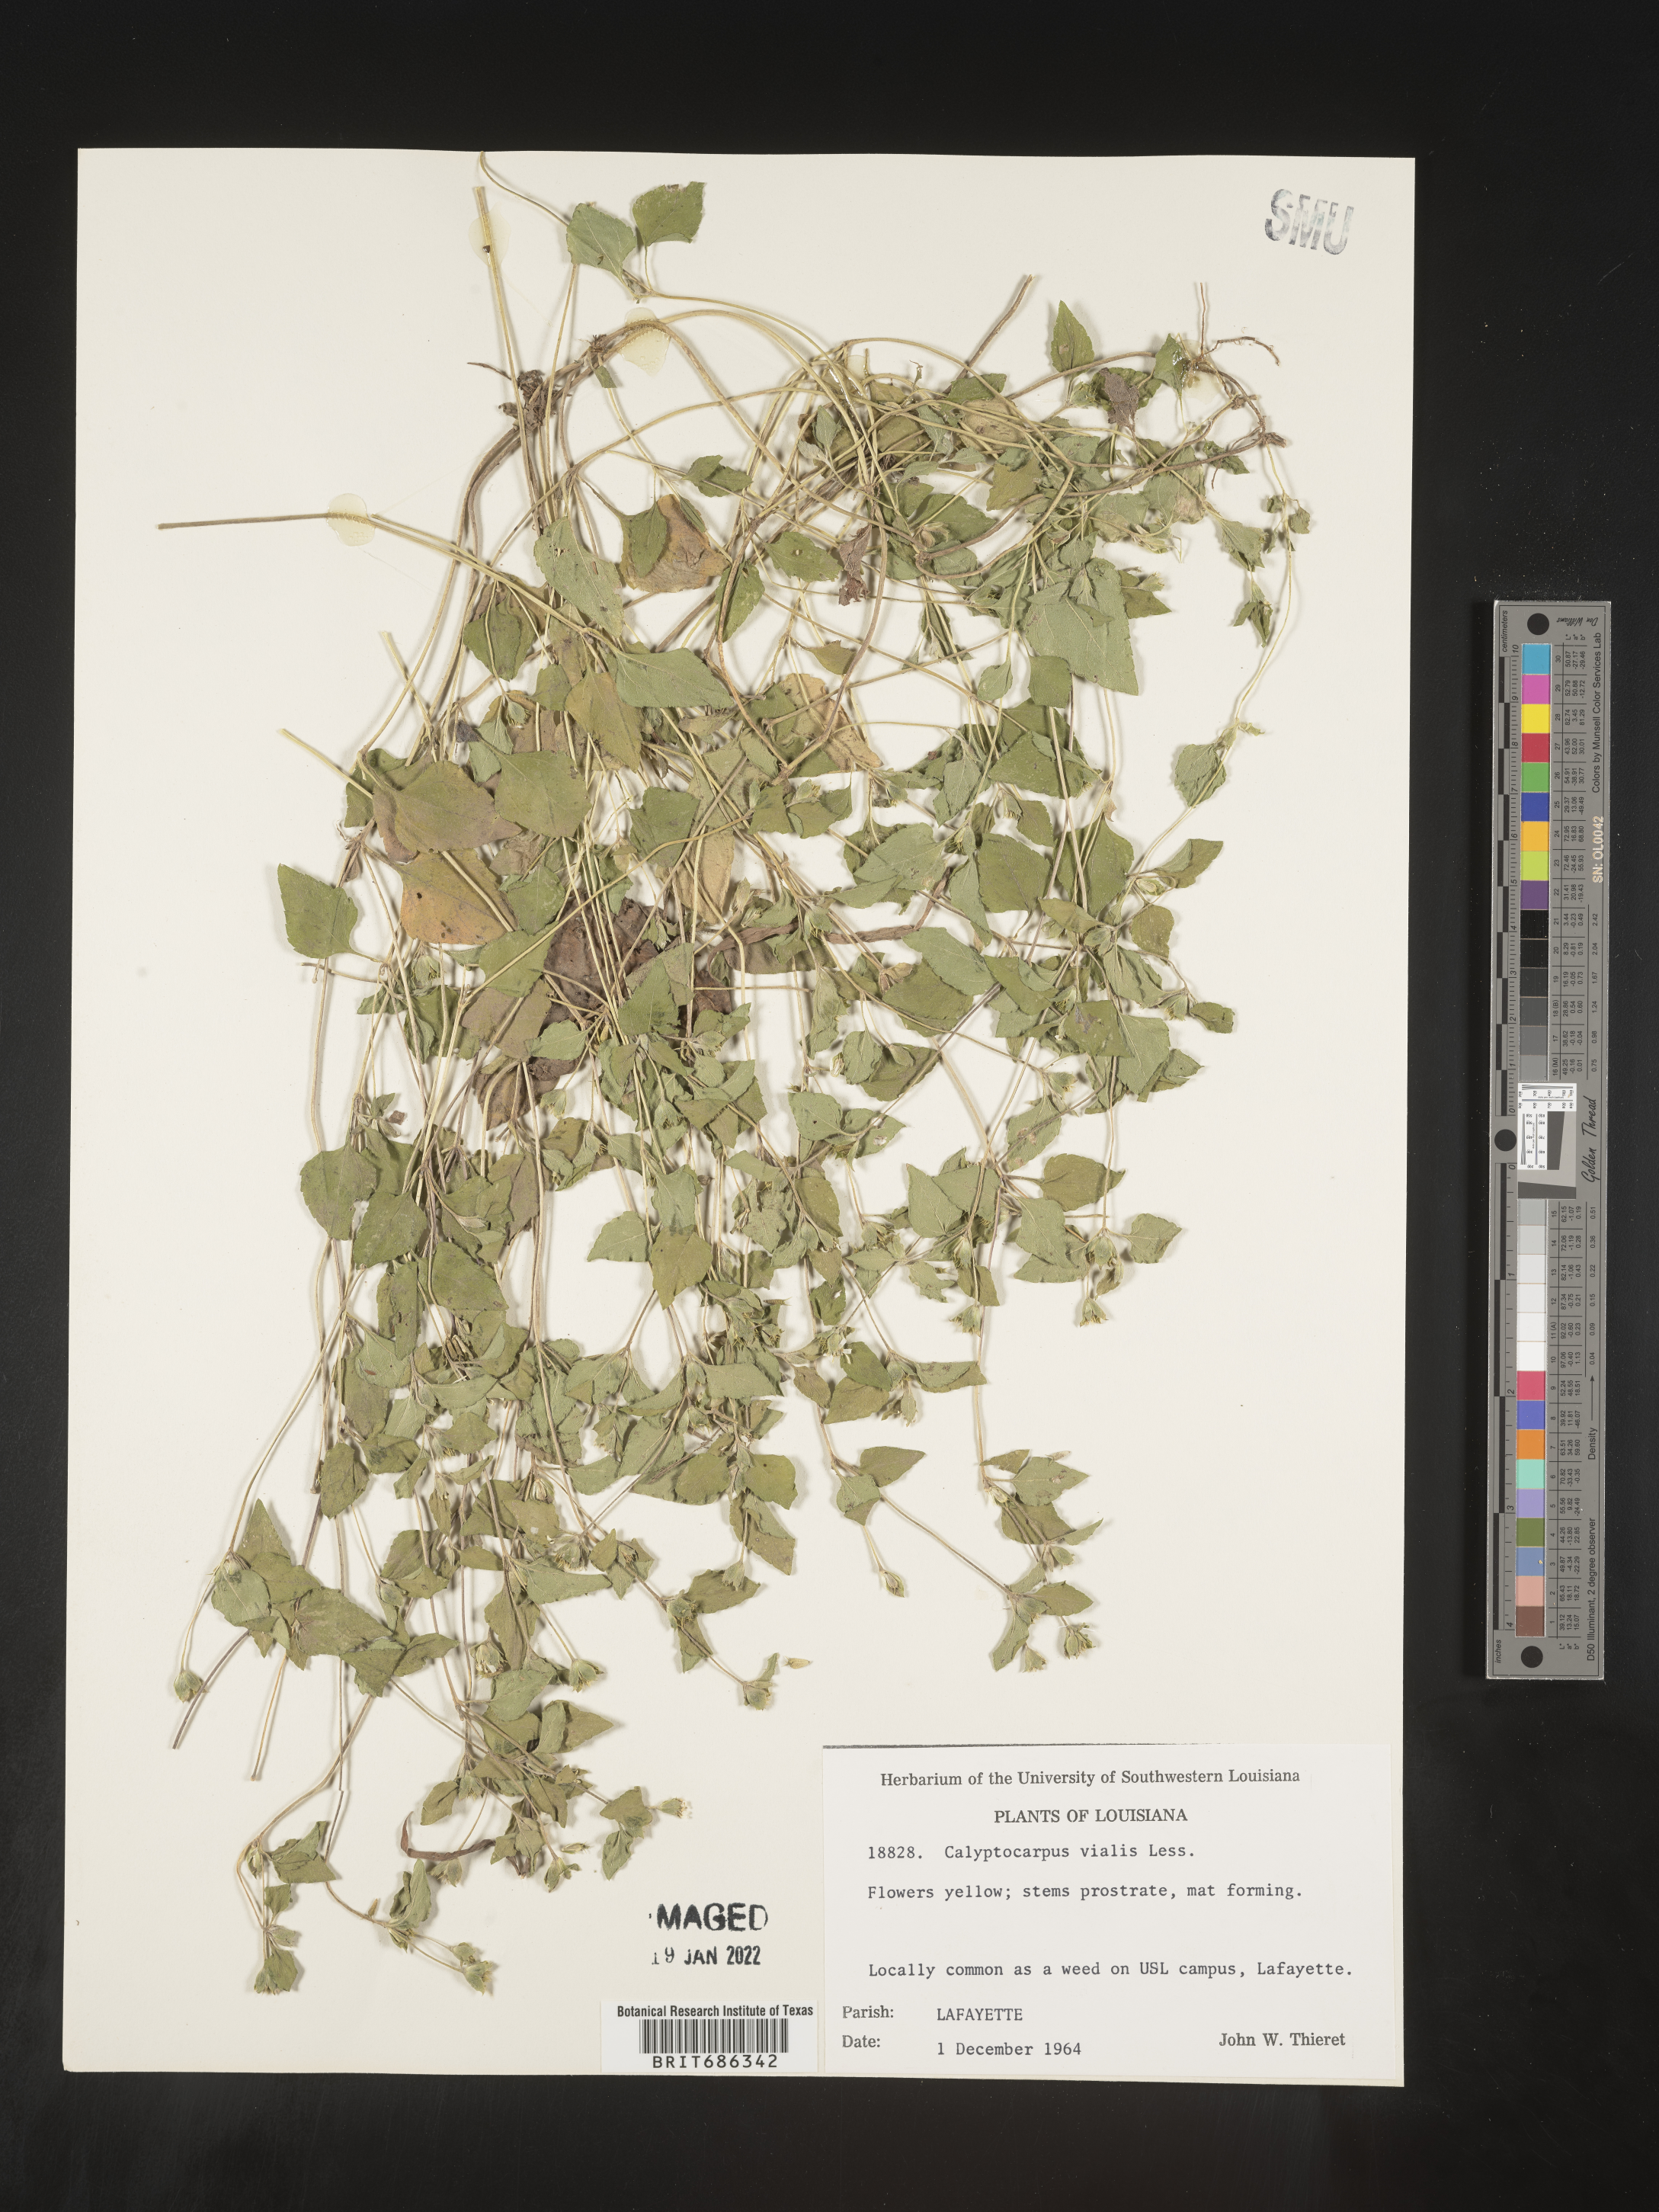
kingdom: Plantae
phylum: Tracheophyta
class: Magnoliopsida
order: Asterales
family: Asteraceae
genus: Calyptocarpus
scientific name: Calyptocarpus
